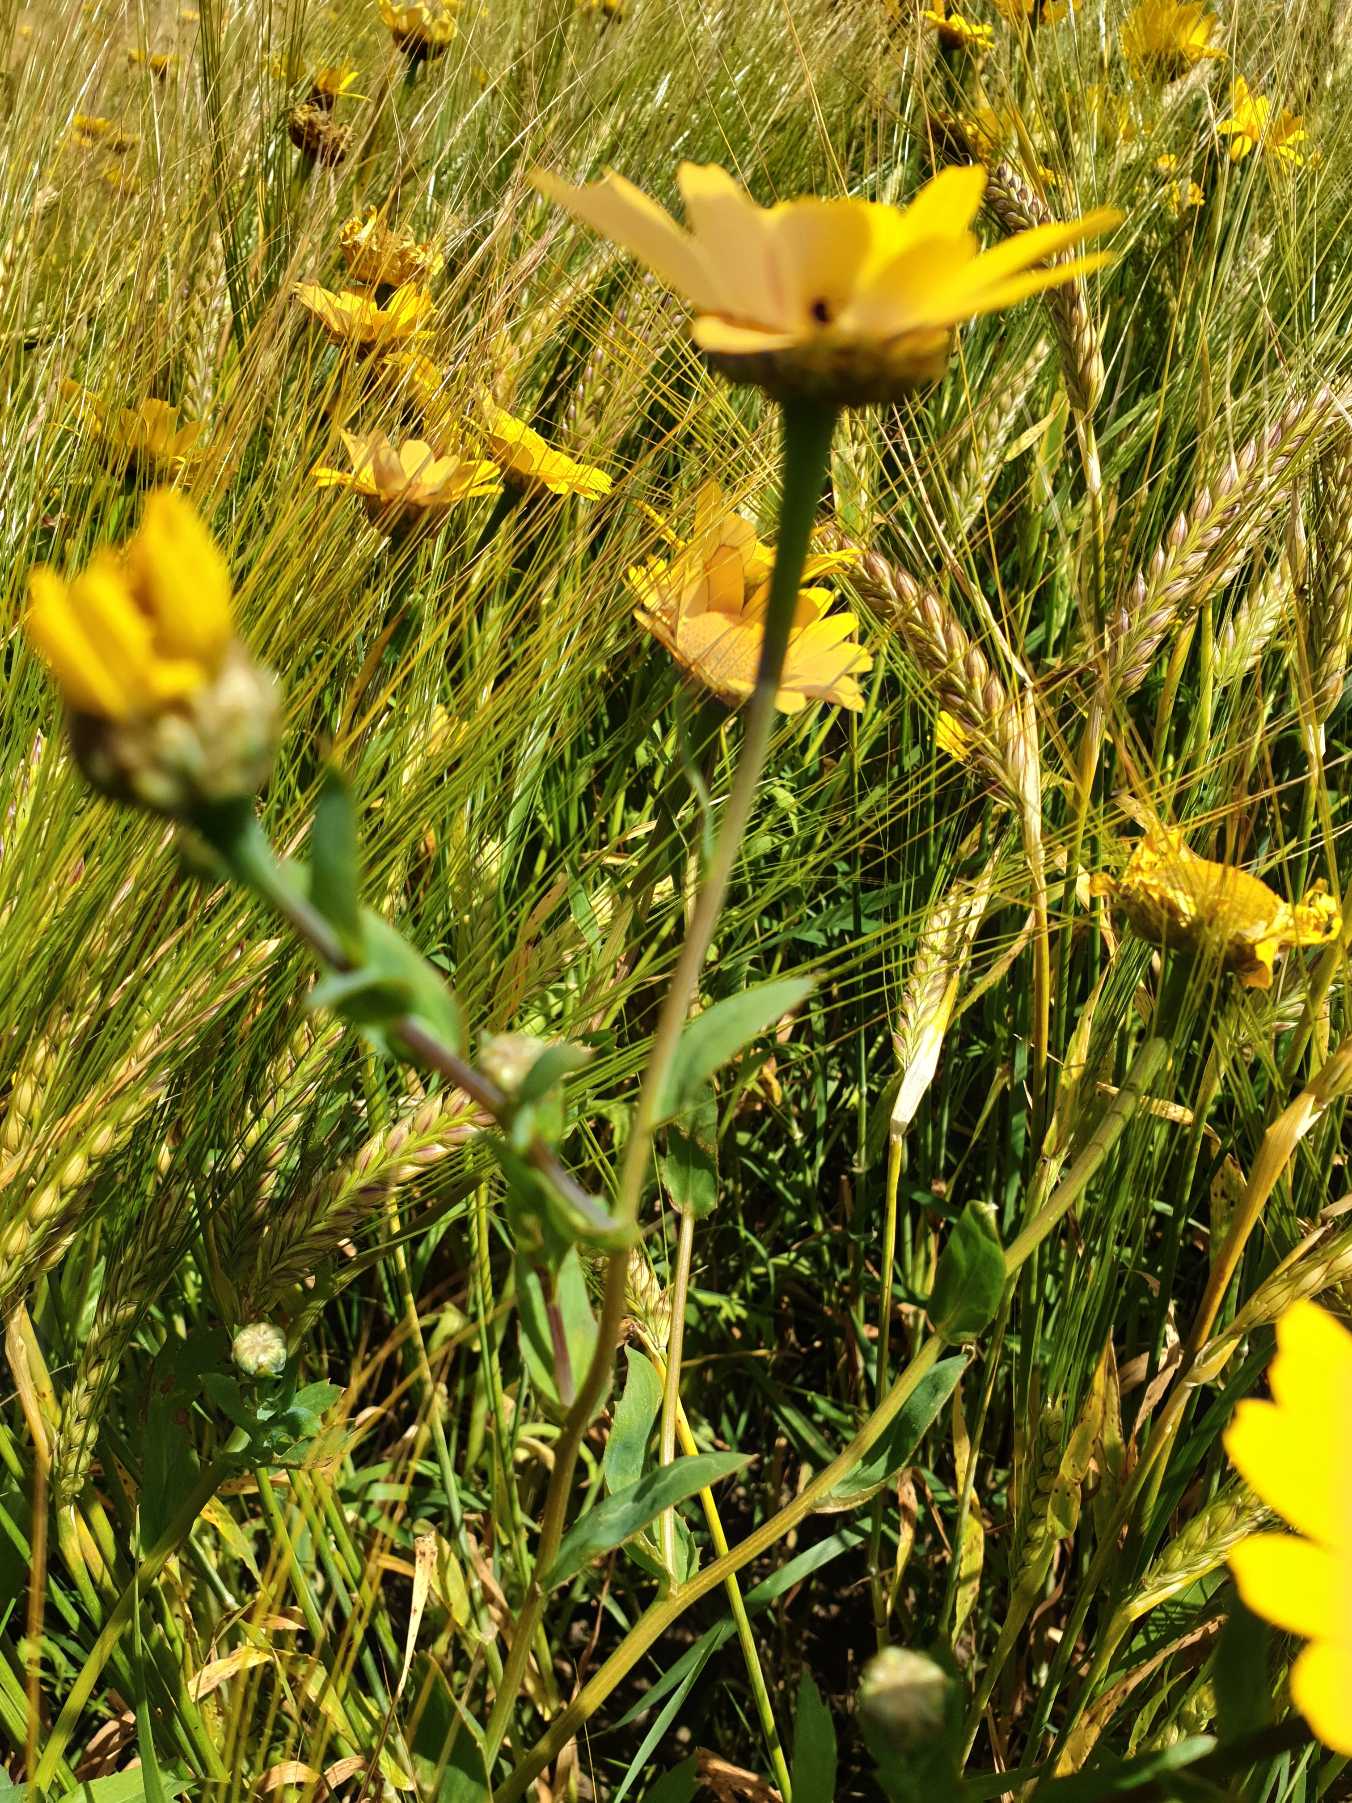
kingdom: Plantae
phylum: Tracheophyta
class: Magnoliopsida
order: Asterales
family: Asteraceae
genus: Glebionis
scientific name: Glebionis segetum
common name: Gul okseøje
